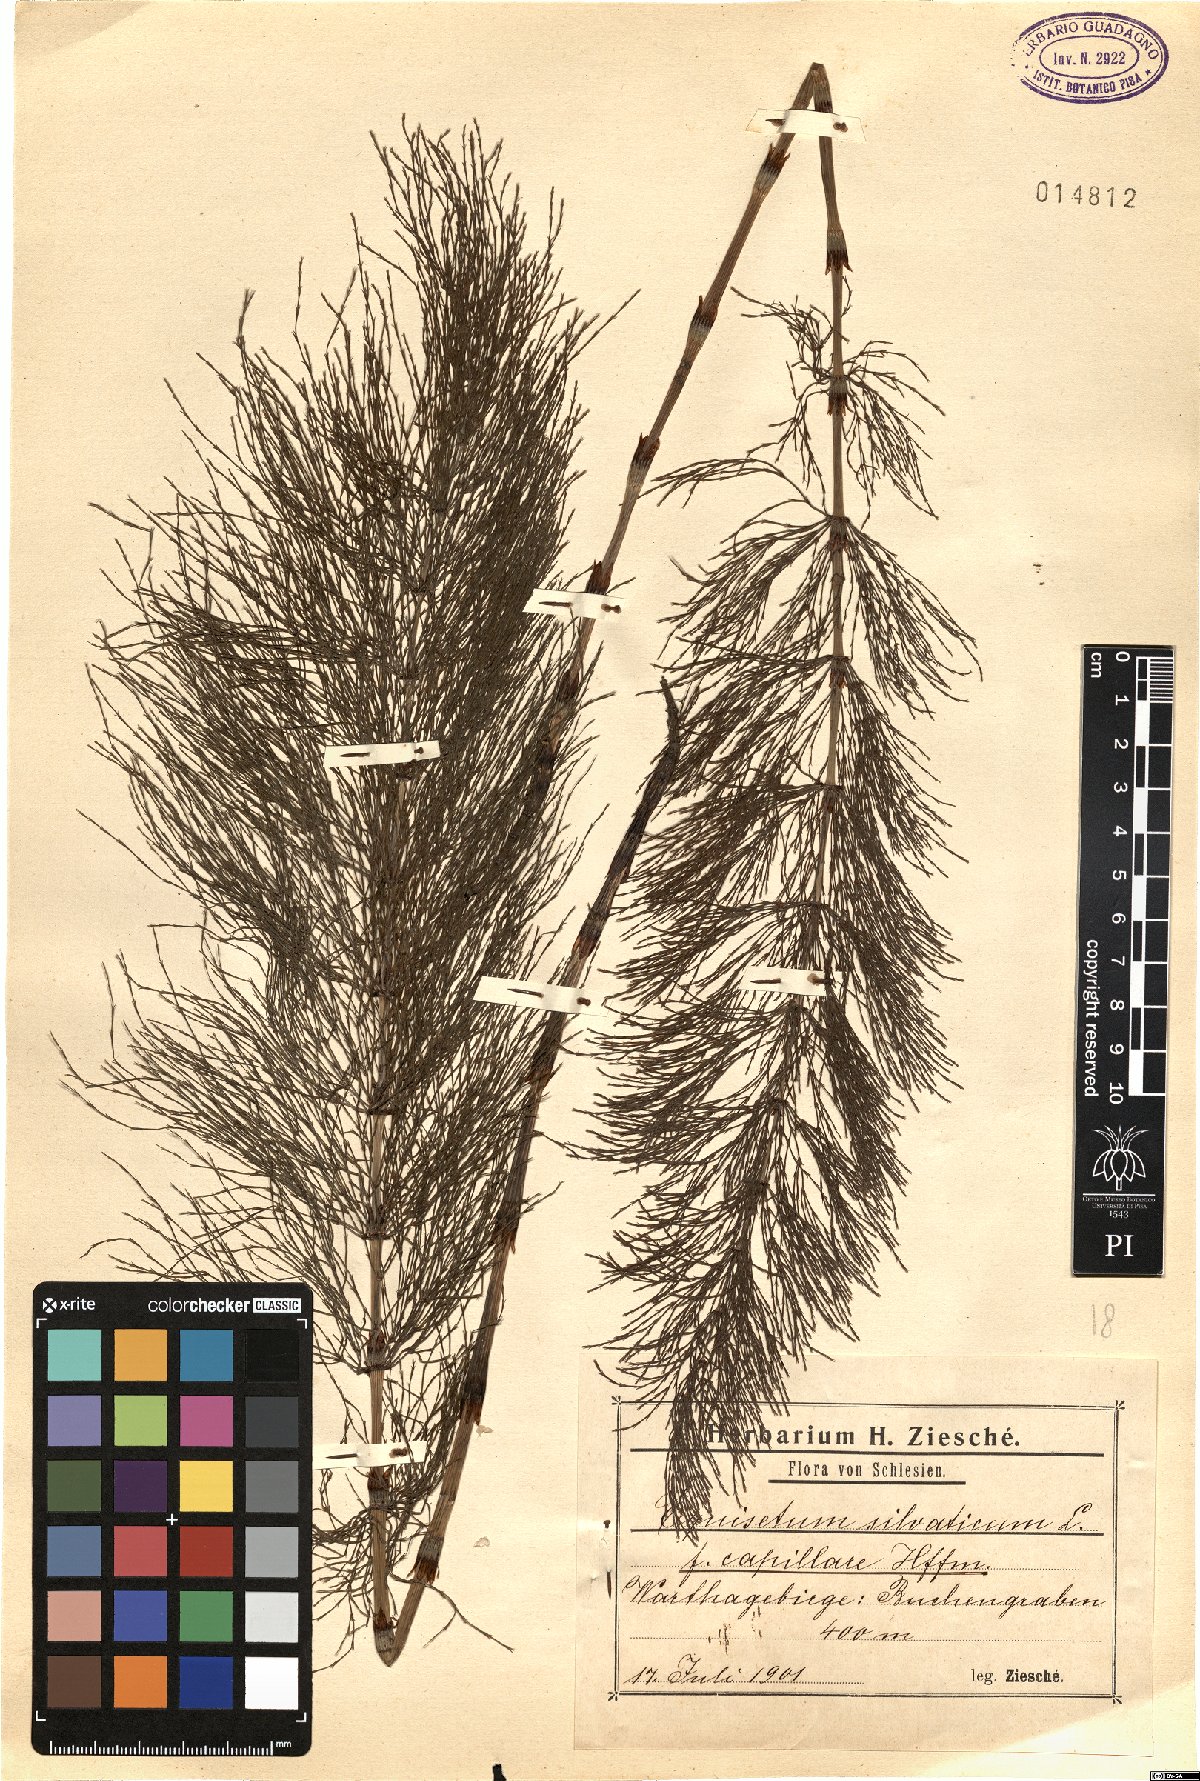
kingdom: Plantae
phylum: Tracheophyta
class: Polypodiopsida
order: Equisetales
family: Equisetaceae
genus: Equisetum
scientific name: Equisetum sylvaticum
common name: Wood horsetail
